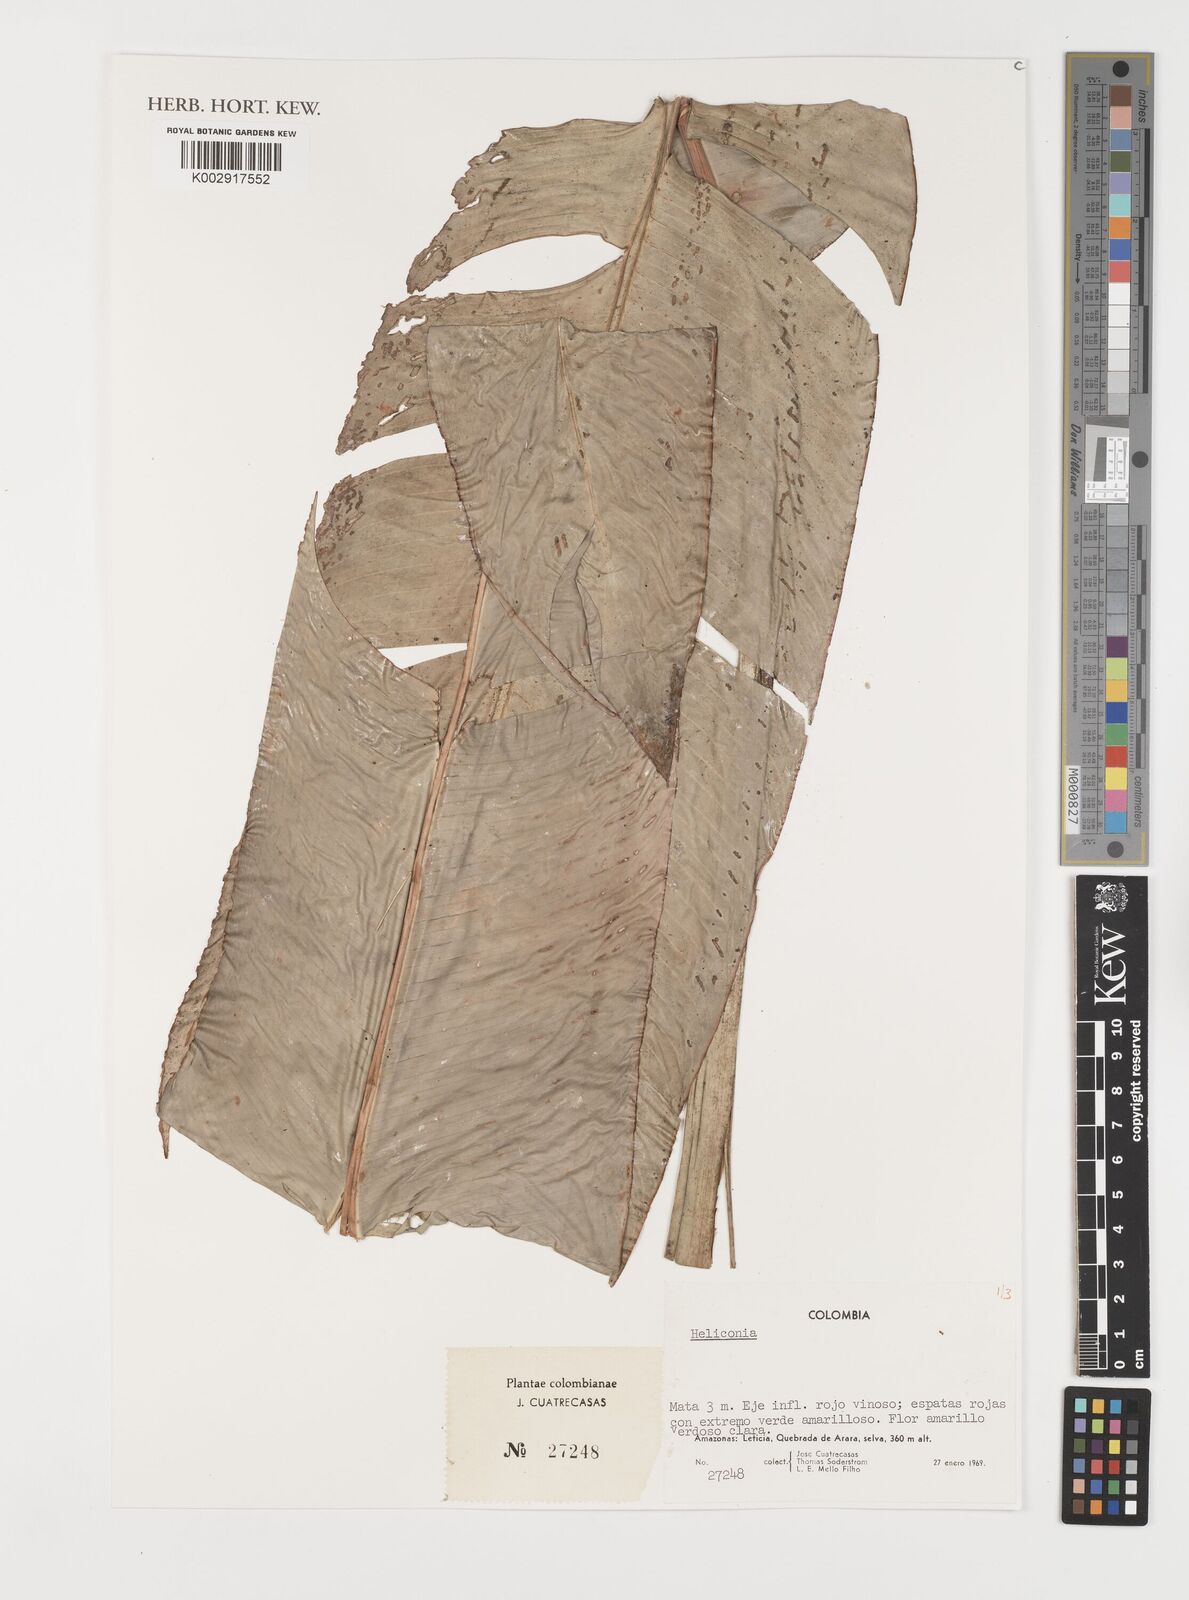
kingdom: Plantae
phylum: Tracheophyta
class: Liliopsida
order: Zingiberales
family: Heliconiaceae
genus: Heliconia
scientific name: Heliconia juruana
